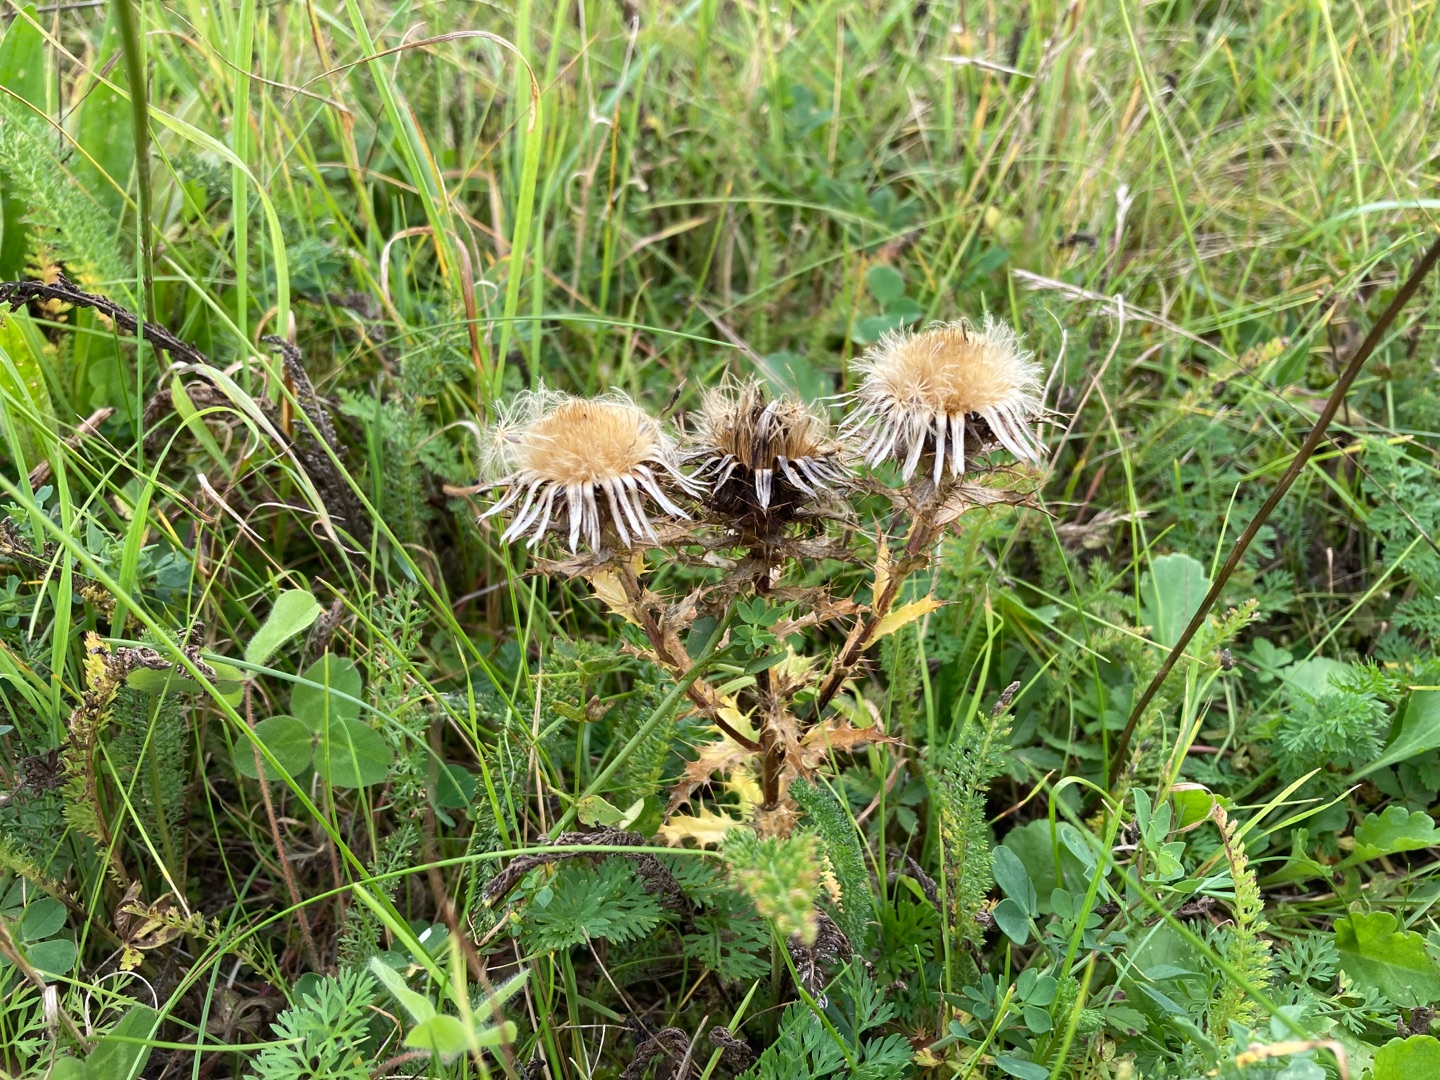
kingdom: Plantae
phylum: Tracheophyta
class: Magnoliopsida
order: Asterales
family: Asteraceae
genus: Carlina
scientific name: Carlina vulgaris
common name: Bakketidsel
